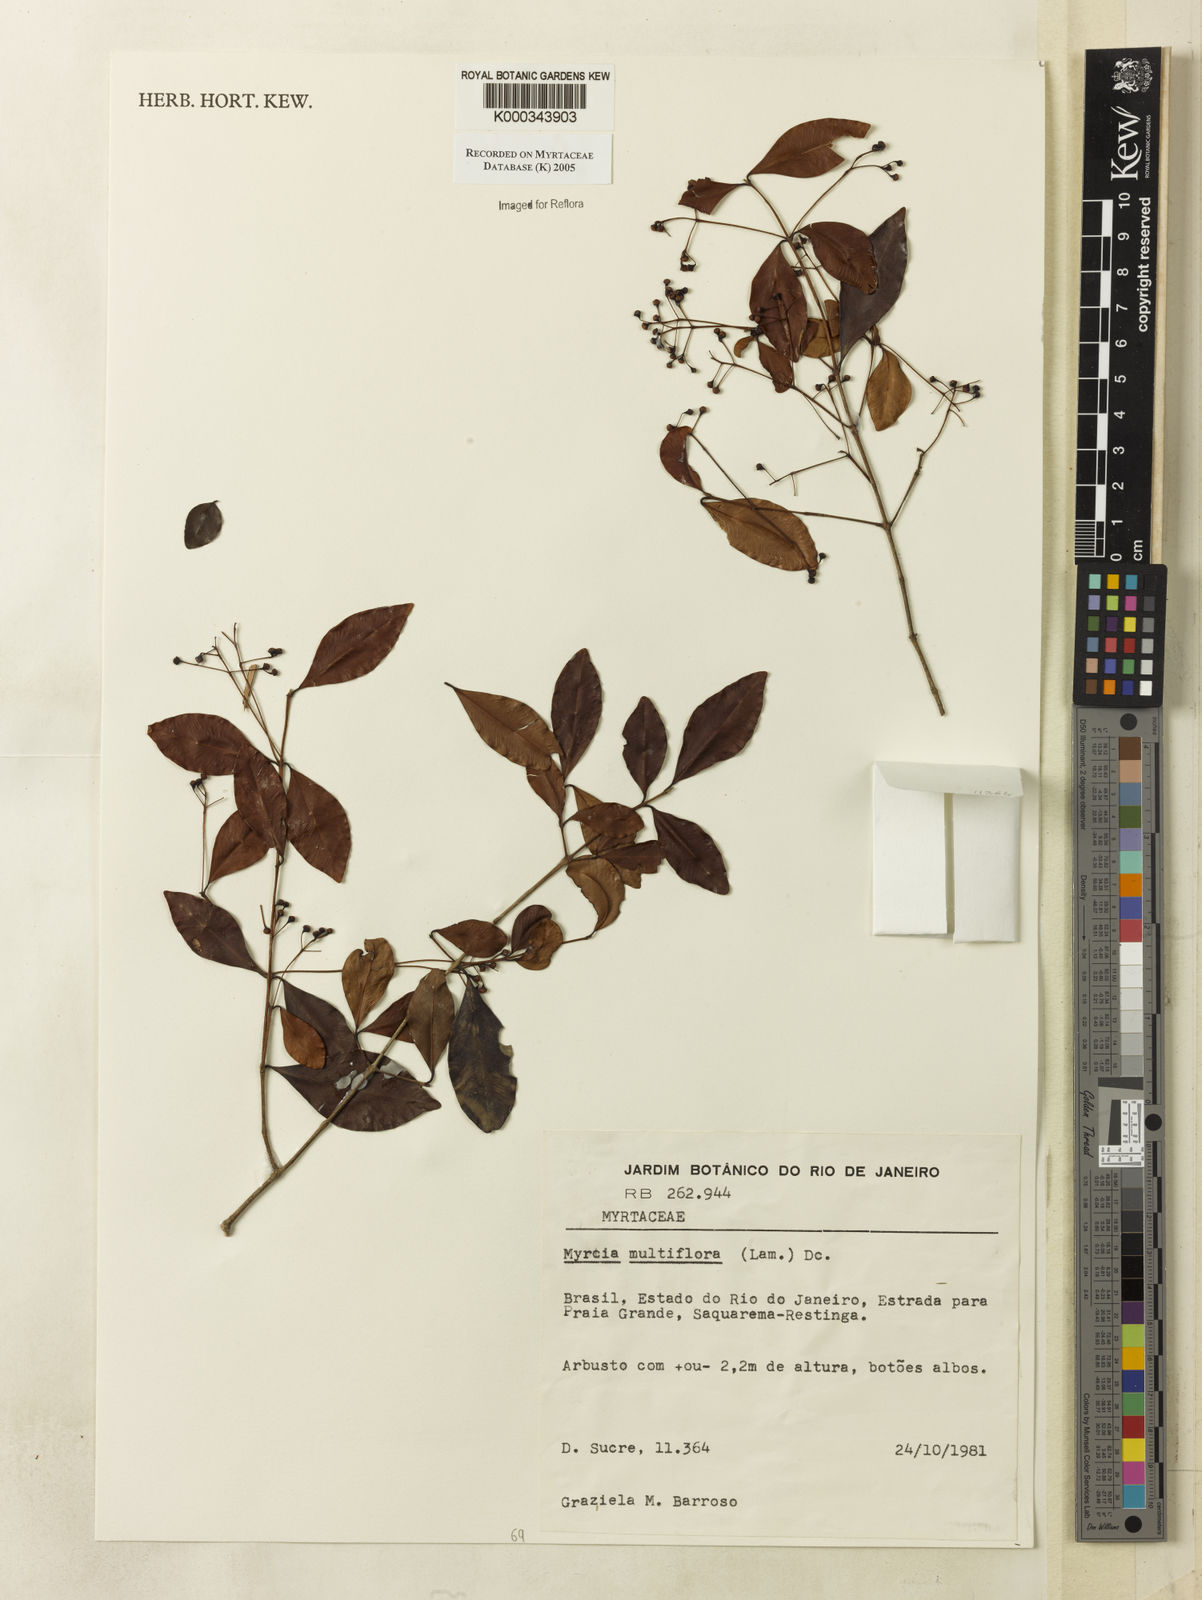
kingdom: Plantae
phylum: Tracheophyta
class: Magnoliopsida
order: Myrtales
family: Myrtaceae
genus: Myrcia
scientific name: Myrcia multiflora
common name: Pedra hume
